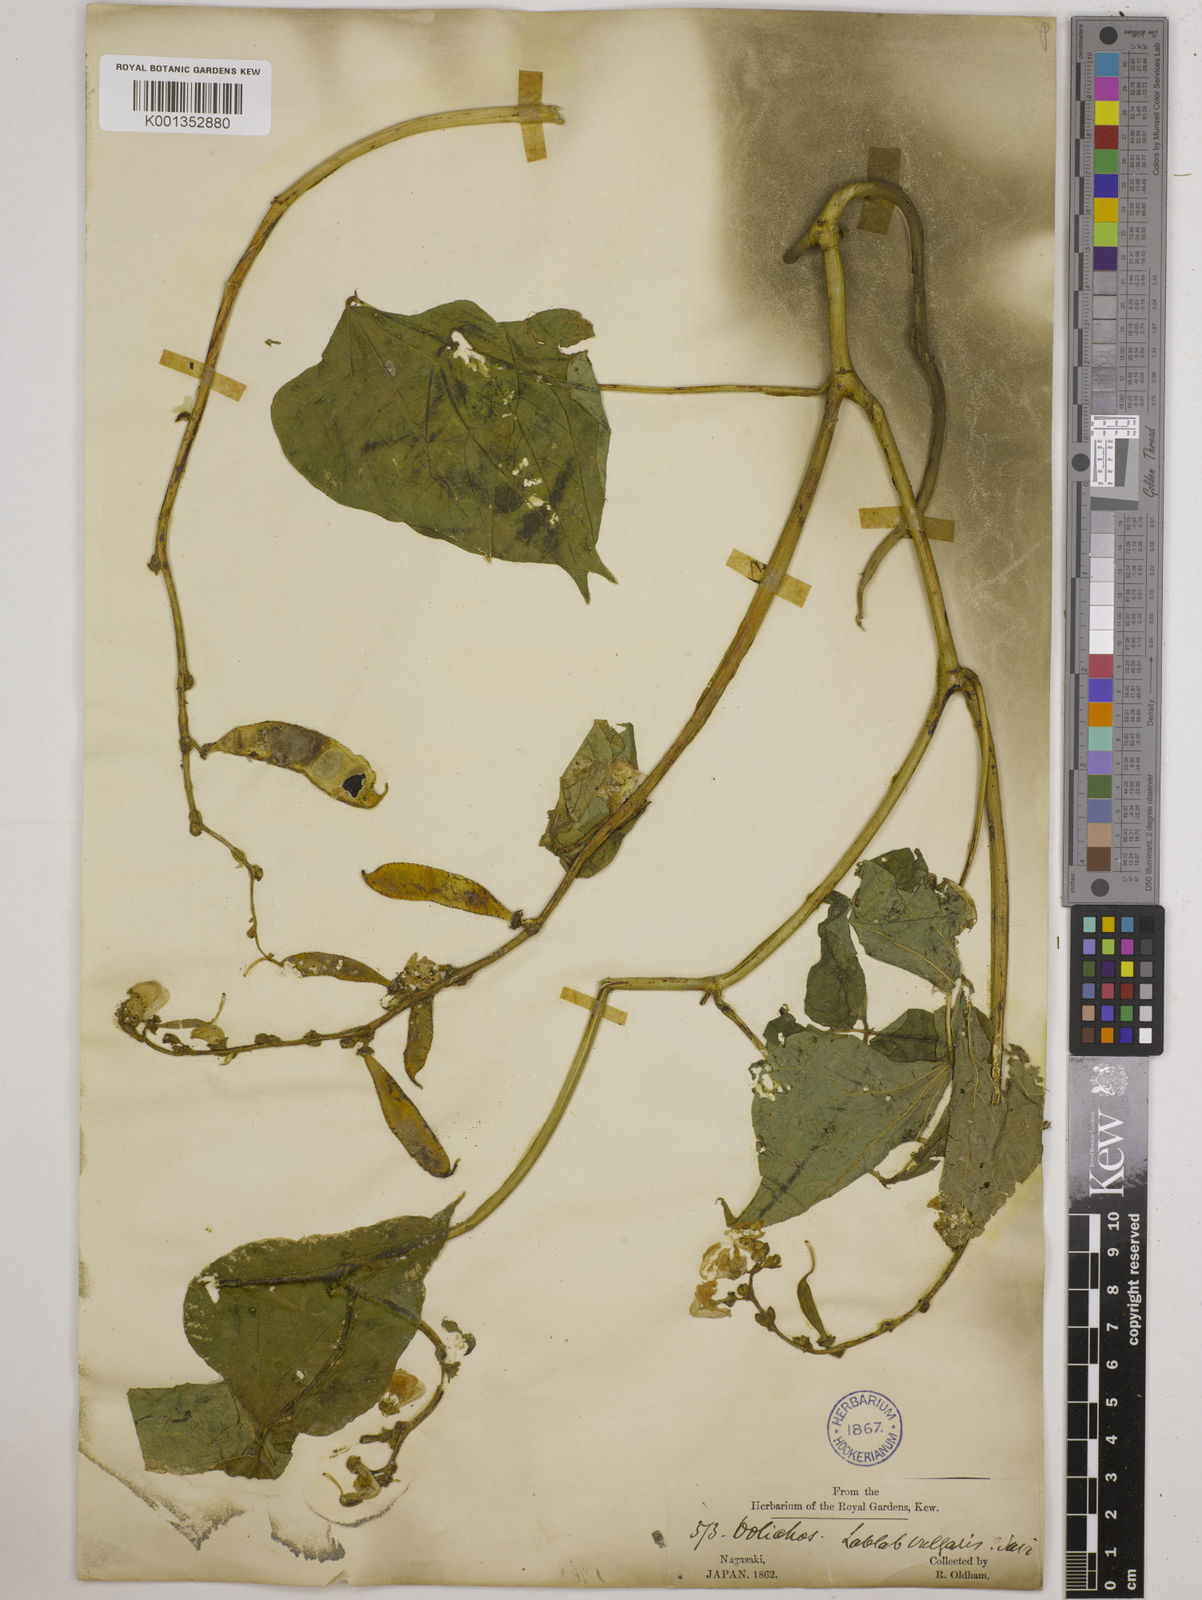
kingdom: Plantae
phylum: Tracheophyta
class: Magnoliopsida
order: Fabales
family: Fabaceae
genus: Lablab
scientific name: Lablab purpureus
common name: Lablab-bean
